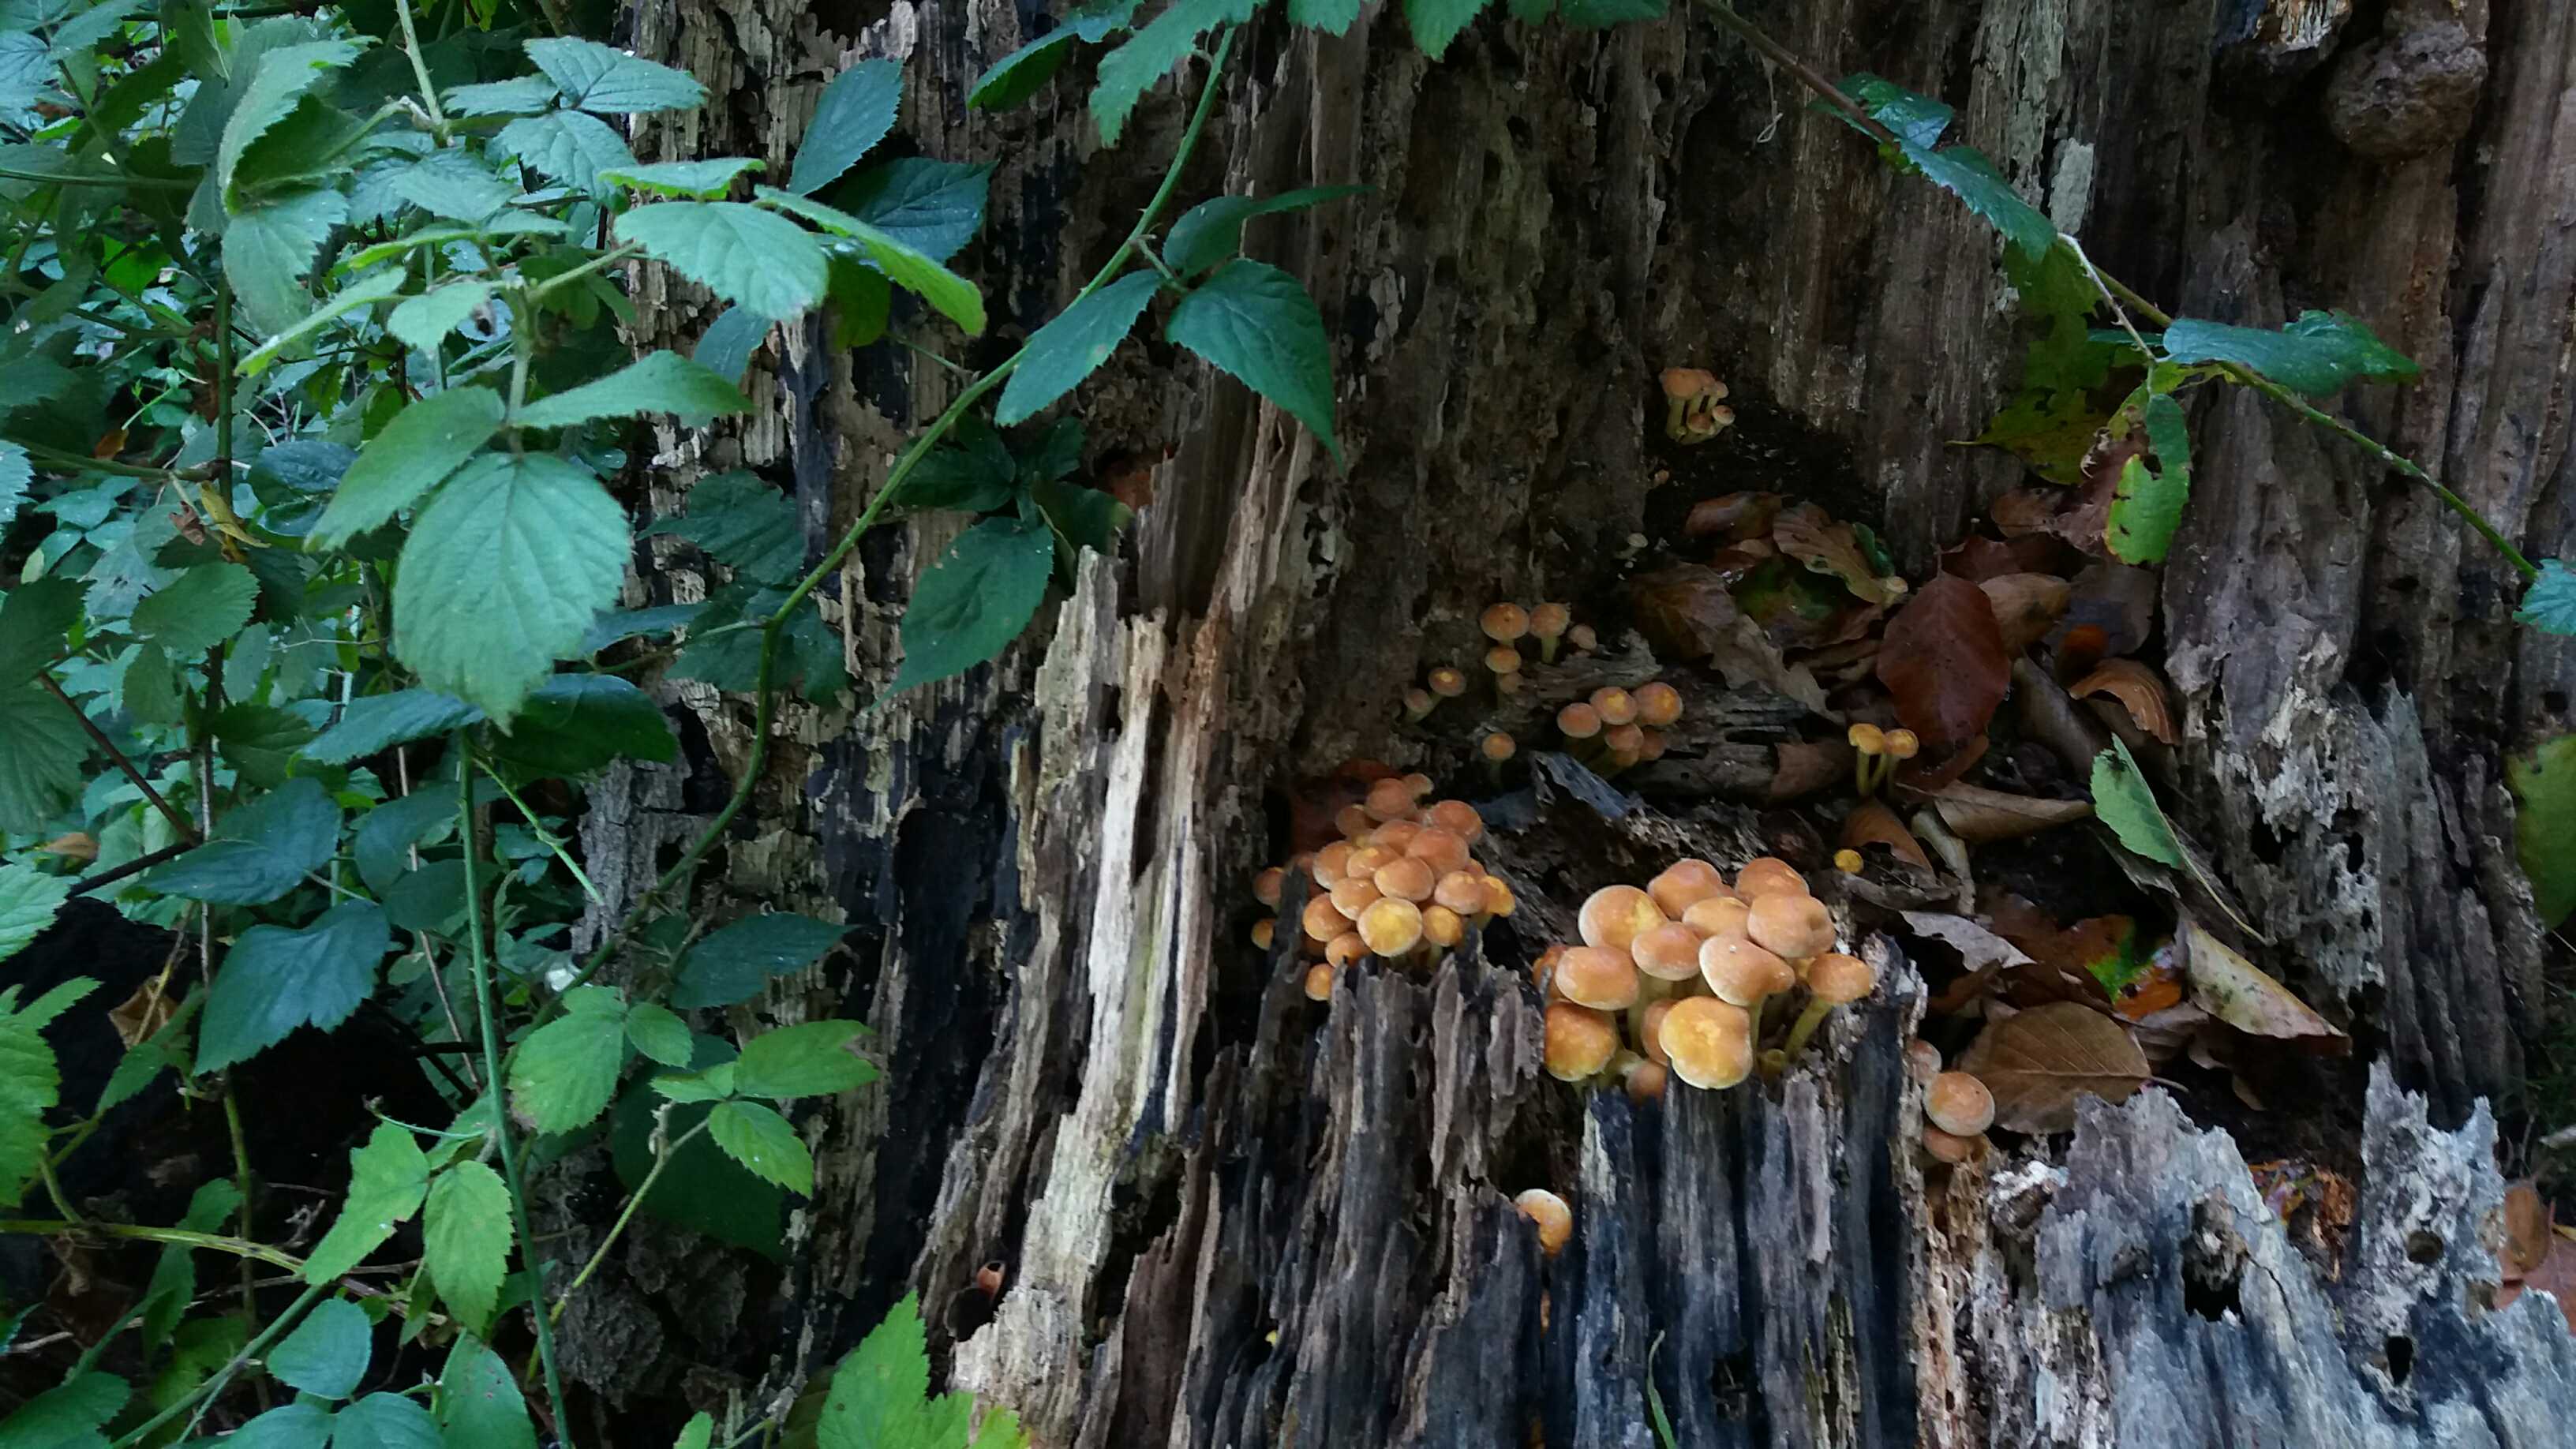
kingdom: Fungi
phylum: Basidiomycota
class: Agaricomycetes
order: Agaricales
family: Strophariaceae
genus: Hypholoma
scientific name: Hypholoma fasciculare
